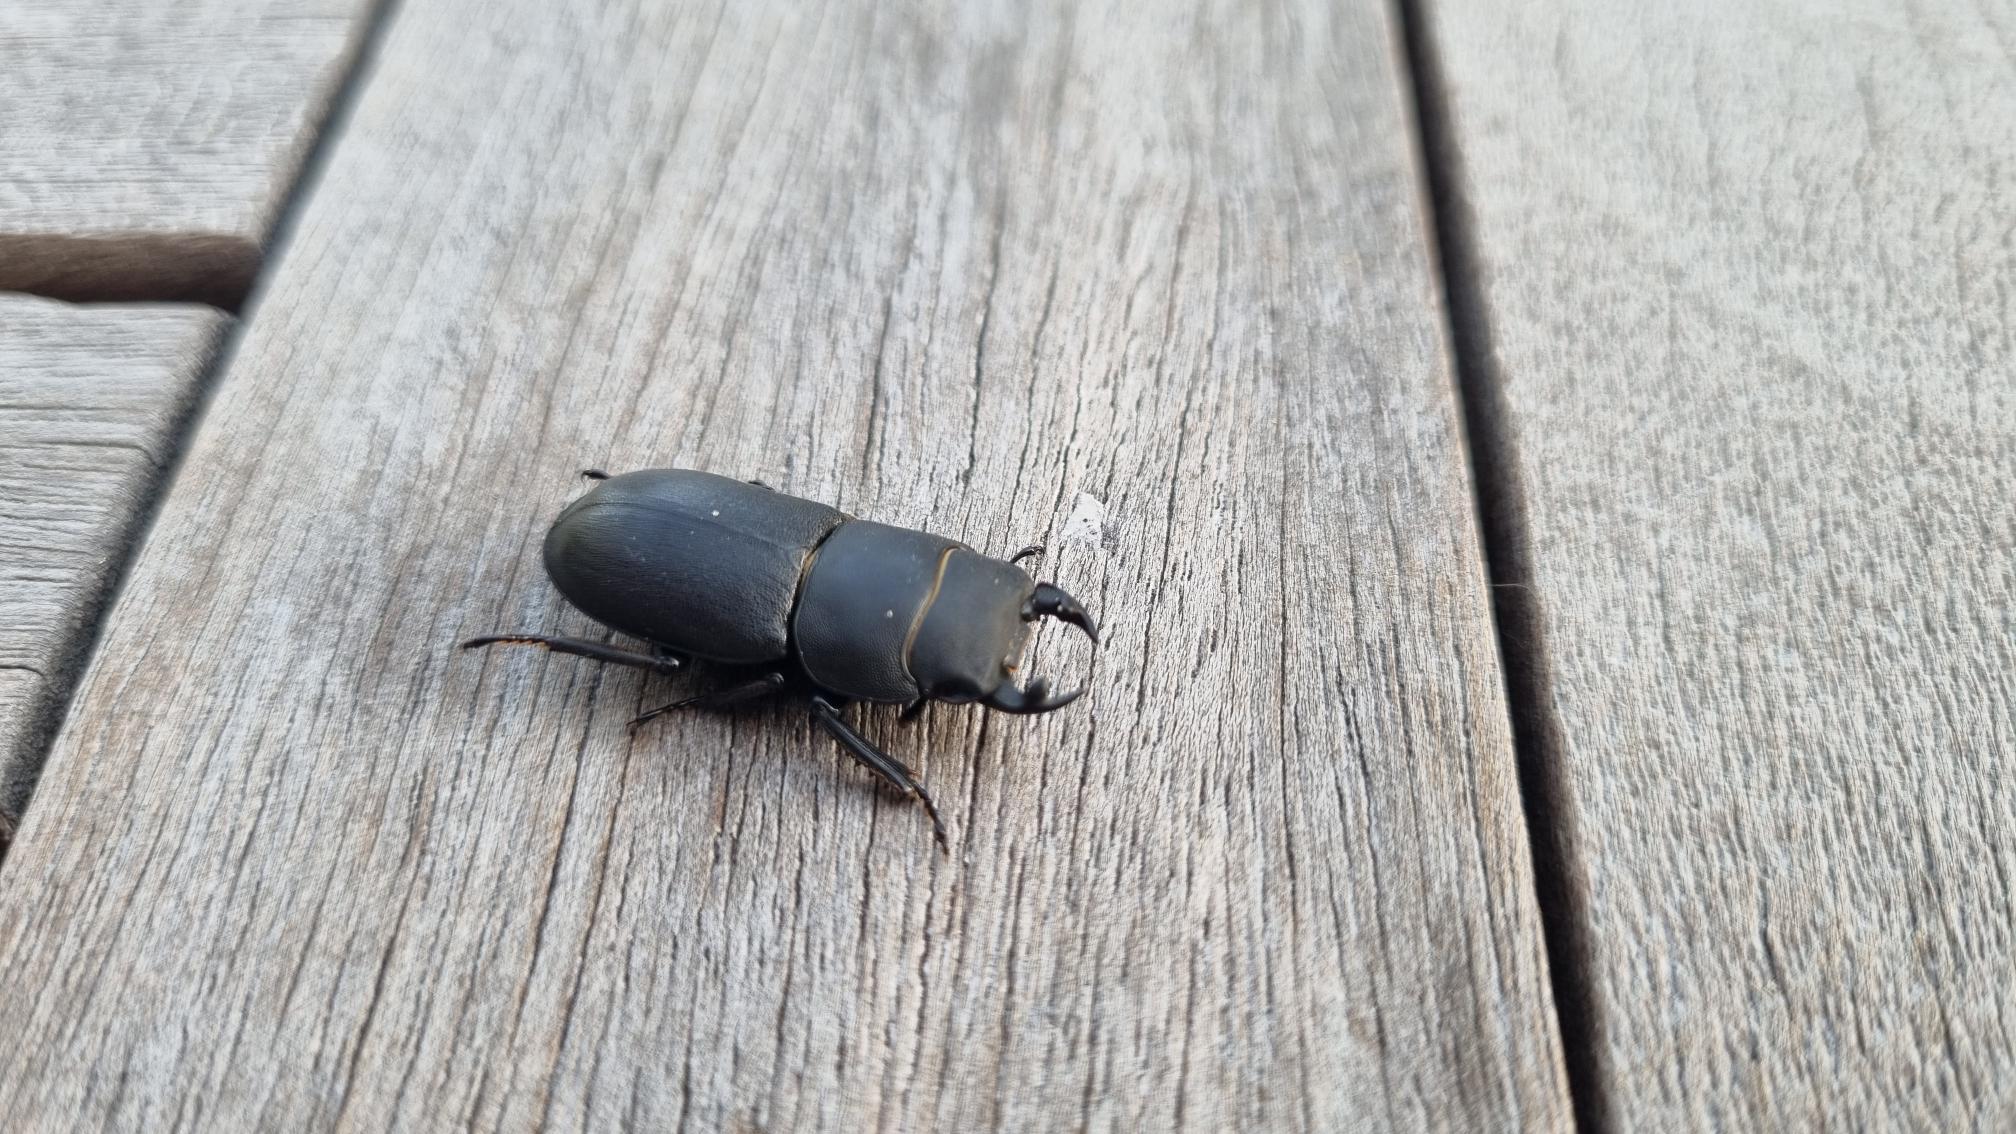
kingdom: Animalia
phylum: Arthropoda
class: Insecta
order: Coleoptera
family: Lucanidae
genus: Dorcus
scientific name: Dorcus parallelipipedus
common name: Bøghjort
